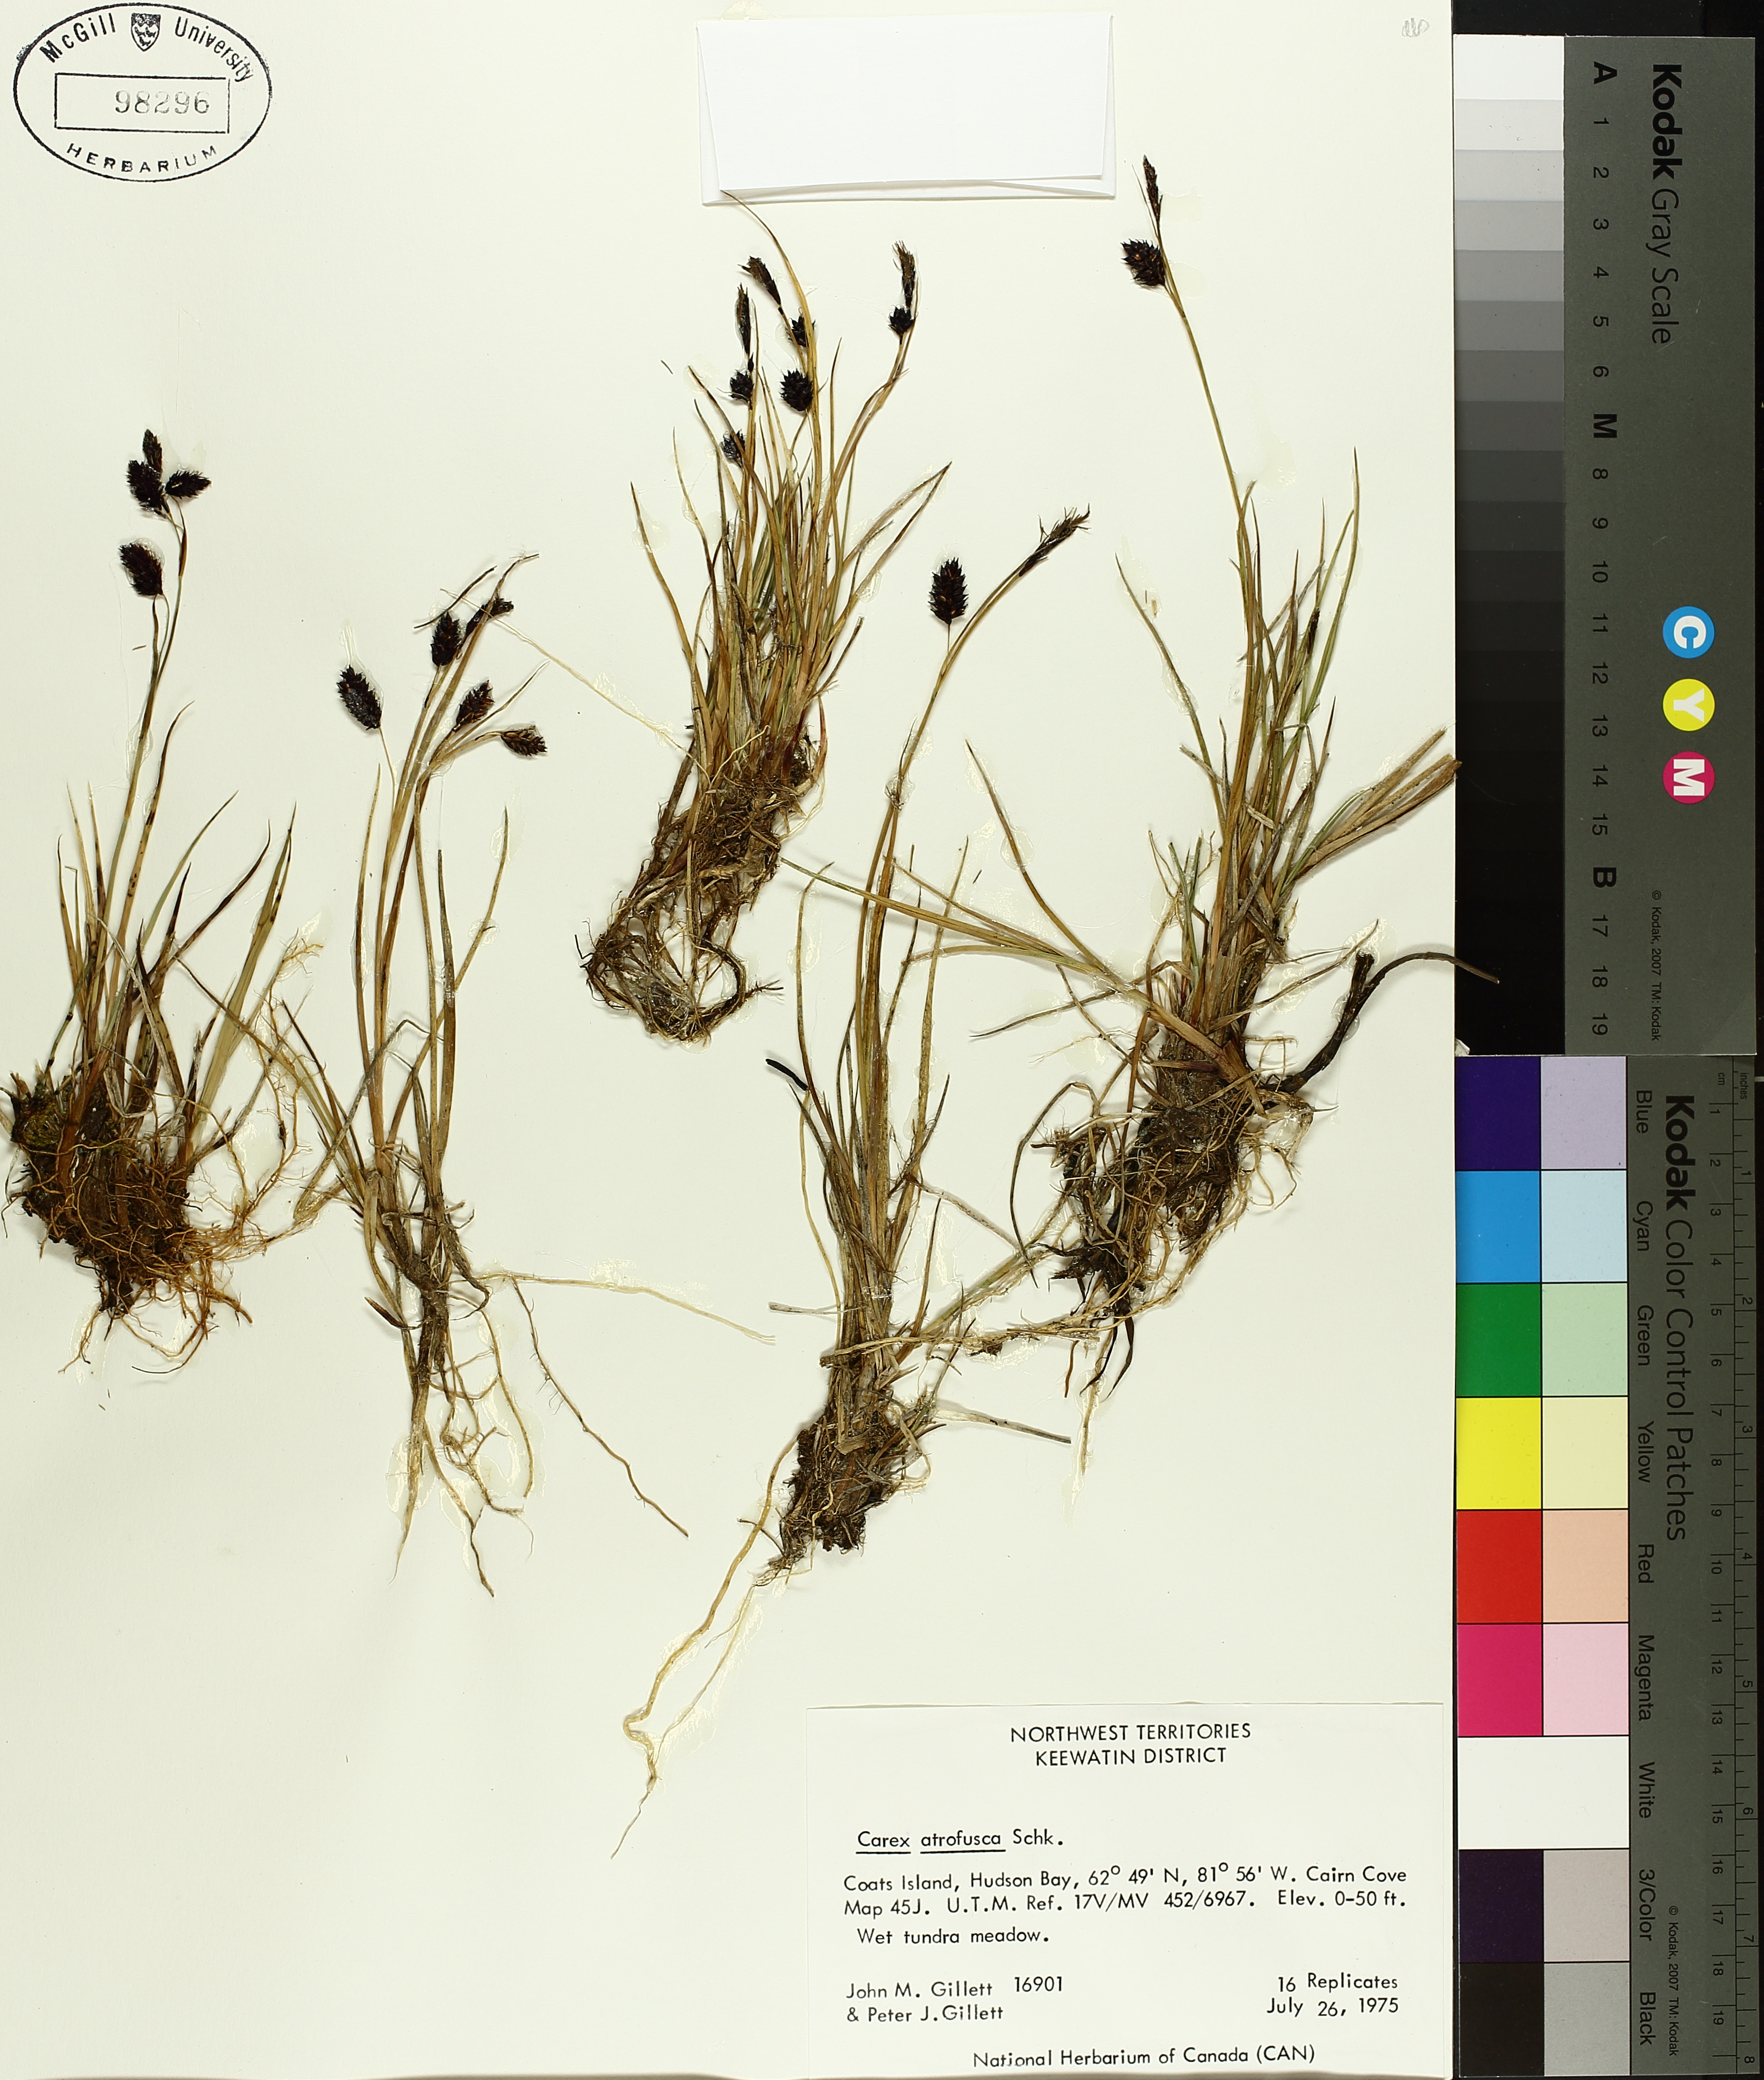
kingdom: Plantae
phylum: Tracheophyta
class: Liliopsida
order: Poales
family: Cyperaceae
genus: Carex
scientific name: Carex atrofusca
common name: Scorched alpine-sedge
